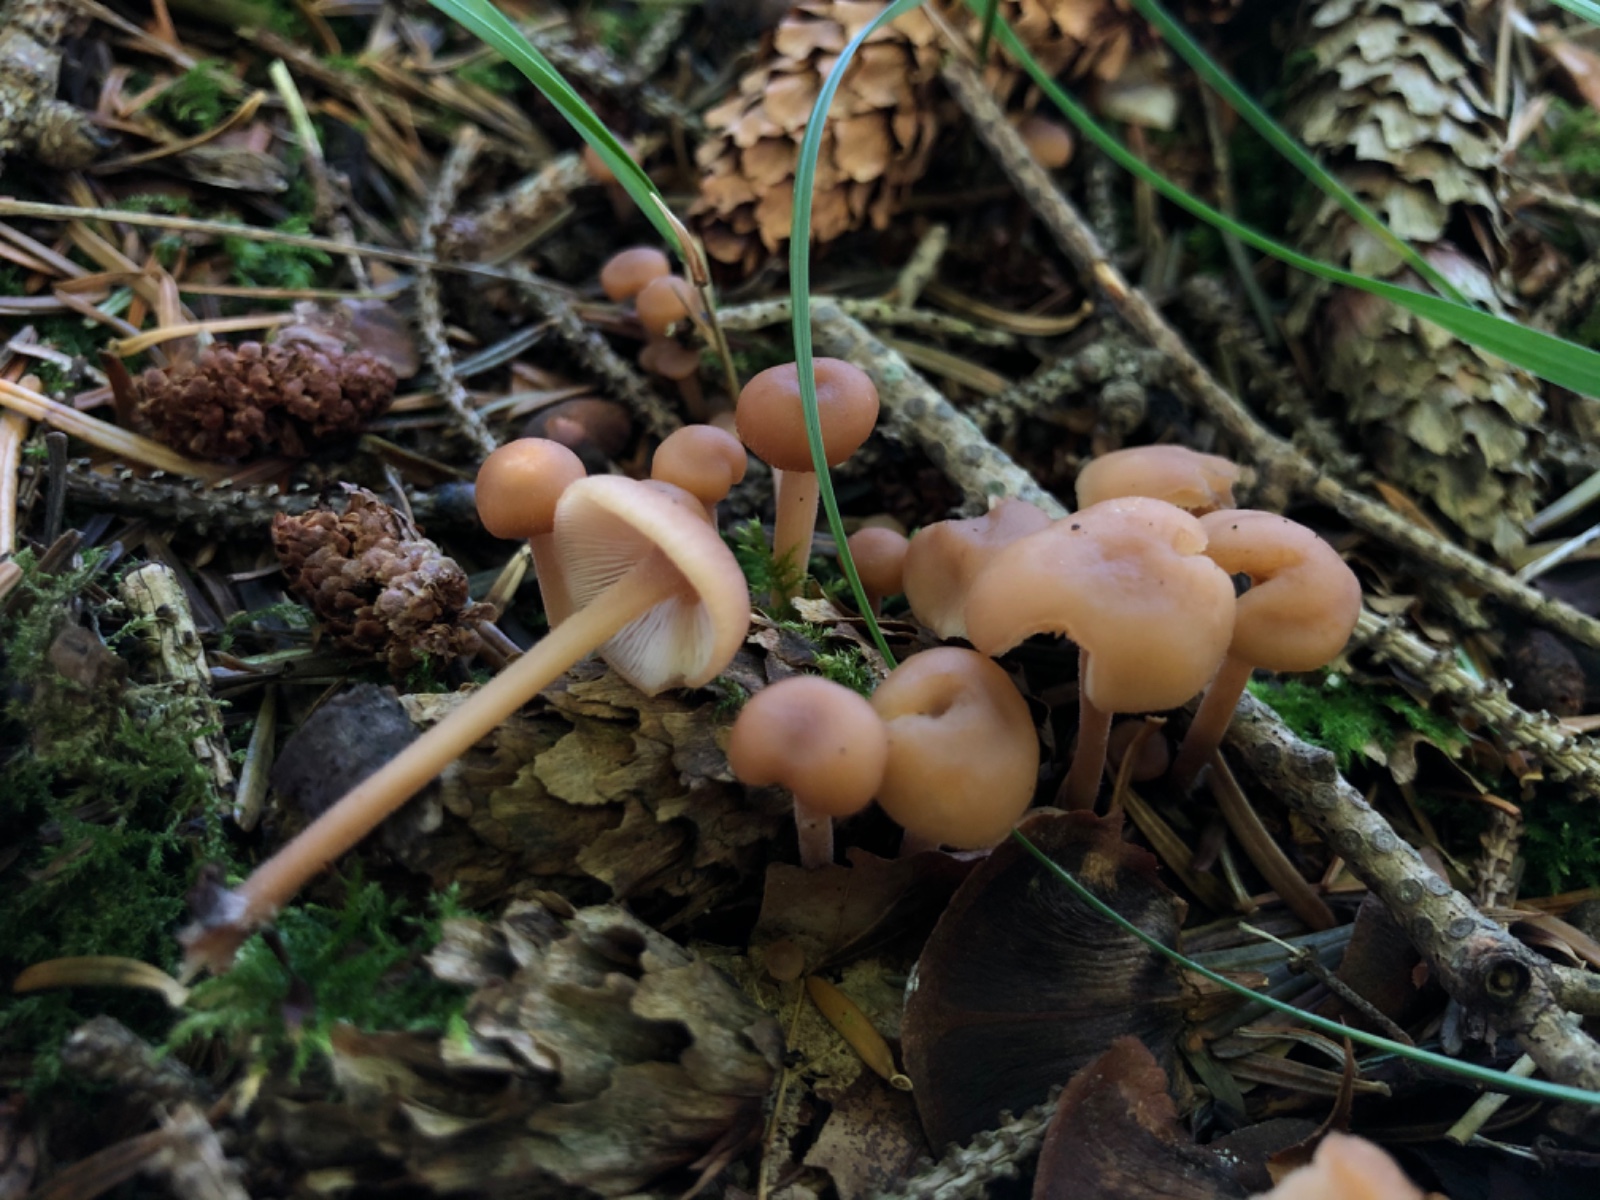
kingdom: Fungi
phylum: Basidiomycota
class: Agaricomycetes
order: Agaricales
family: Omphalotaceae
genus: Collybiopsis
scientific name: Collybiopsis confluens
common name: knippe-fladhat
